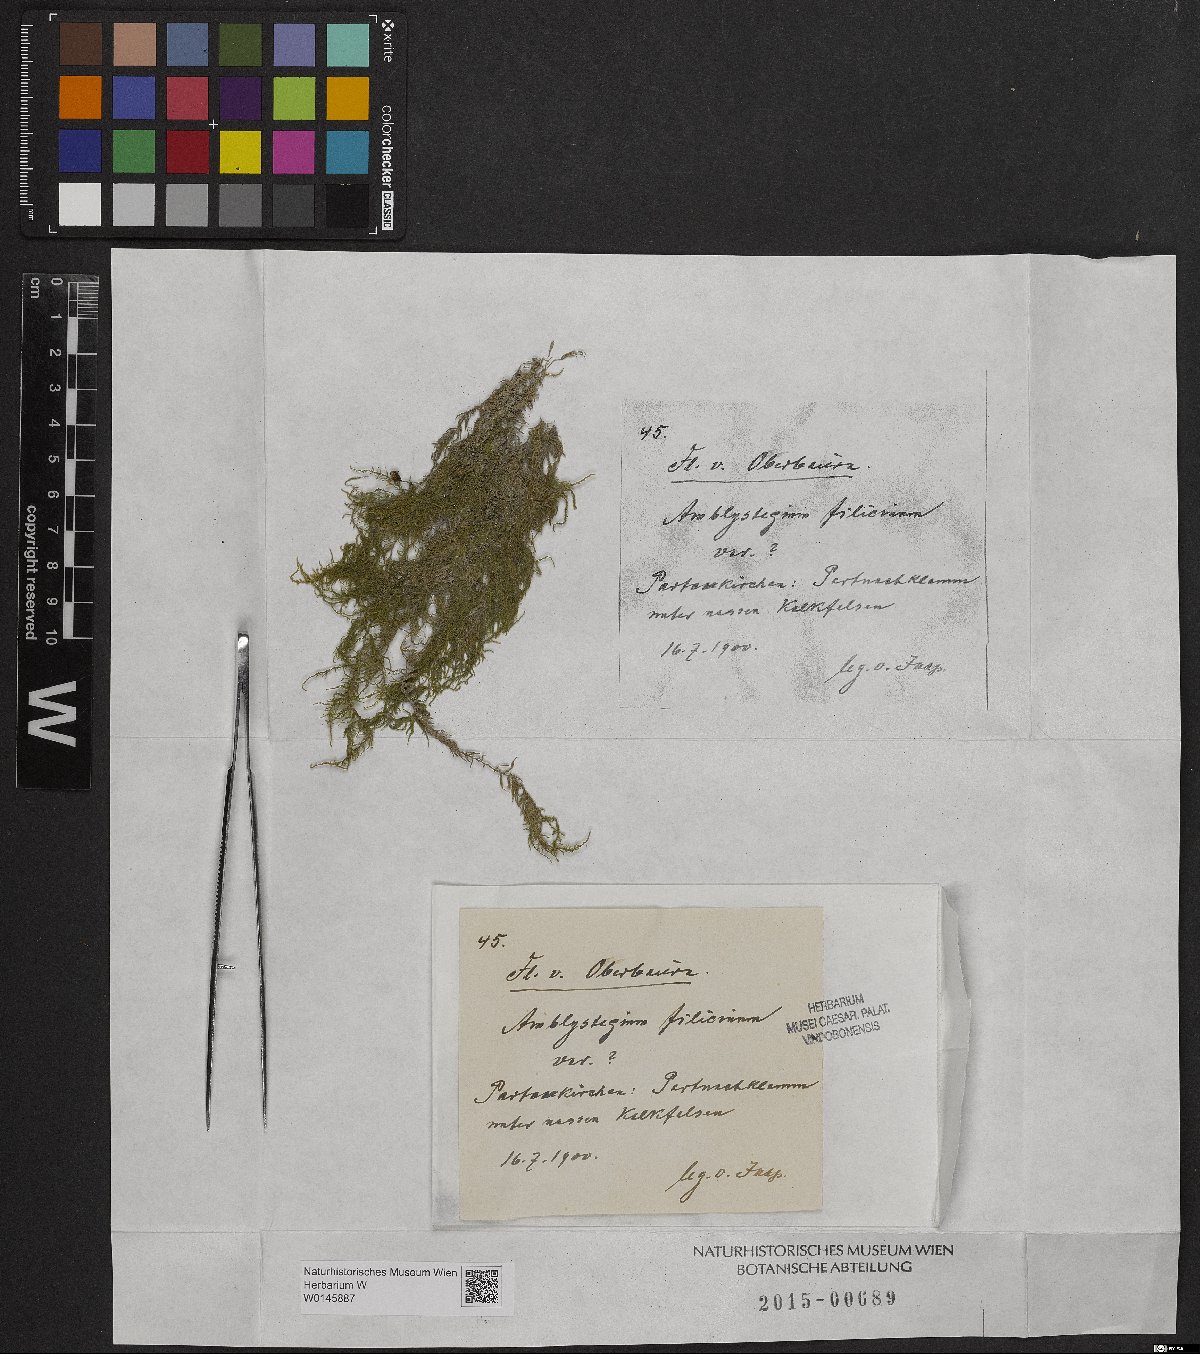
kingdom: Plantae
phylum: Bryophyta
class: Bryopsida
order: Hypnales
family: Amblystegiaceae
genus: Cratoneuron
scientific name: Cratoneuron filicinum
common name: Fern-leaved hook moss
